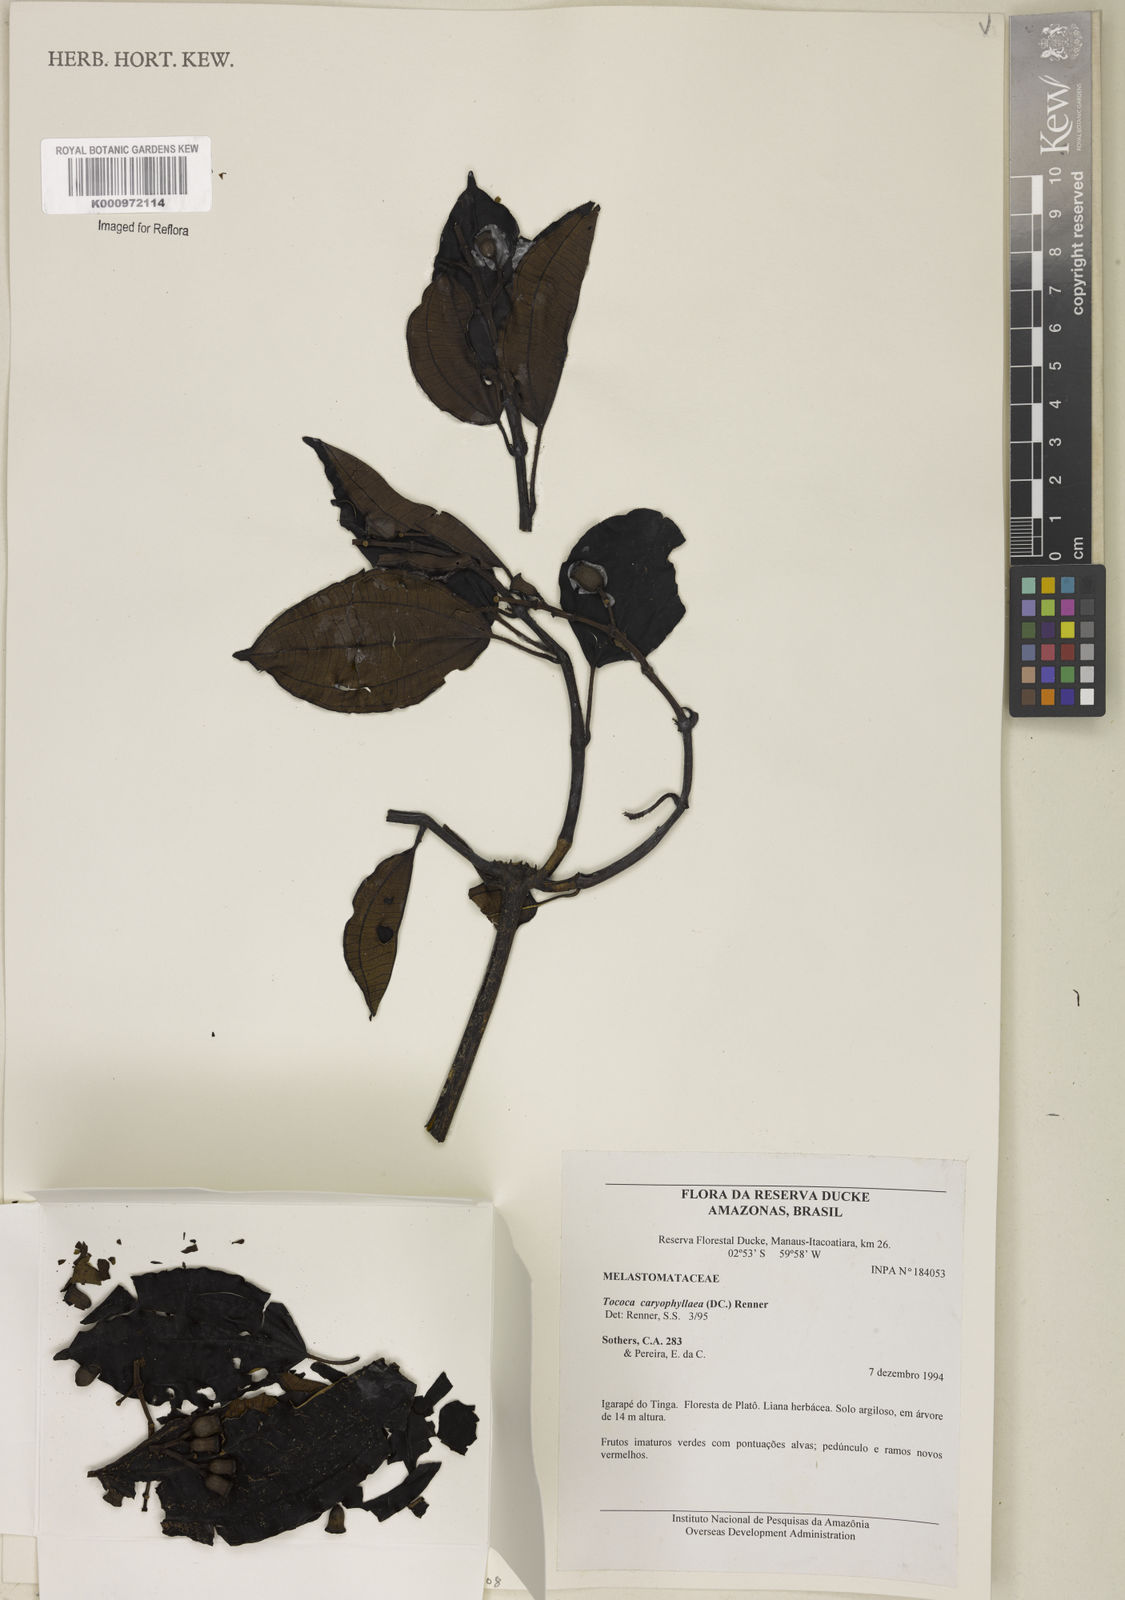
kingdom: Plantae
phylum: Tracheophyta
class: Magnoliopsida
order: Myrtales
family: Melastomataceae
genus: Miconia
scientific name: Miconia caryophyllacea
